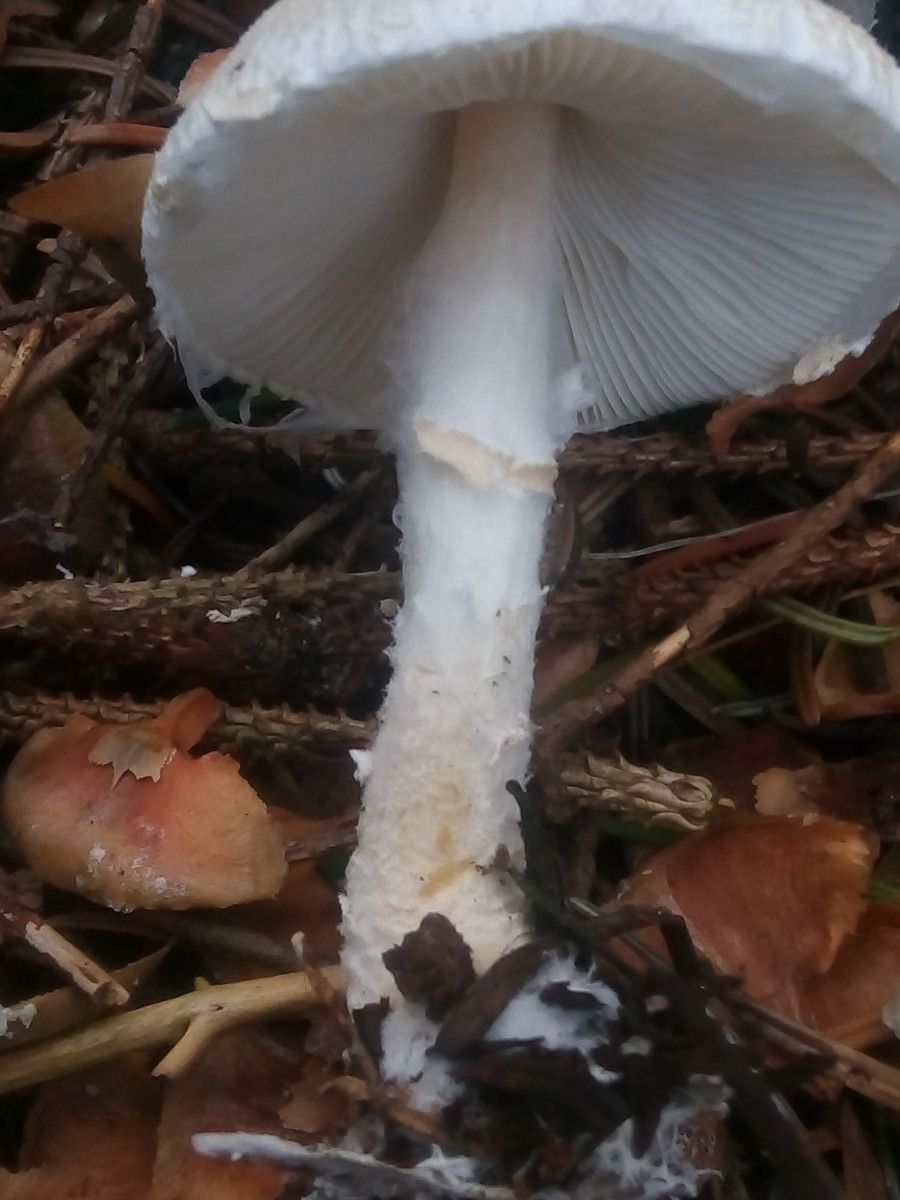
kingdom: Fungi
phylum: Basidiomycota
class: Agaricomycetes
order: Agaricales
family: Agaricaceae
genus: Lepiota
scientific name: Lepiota magnispora
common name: gulfnugget parasolhat
